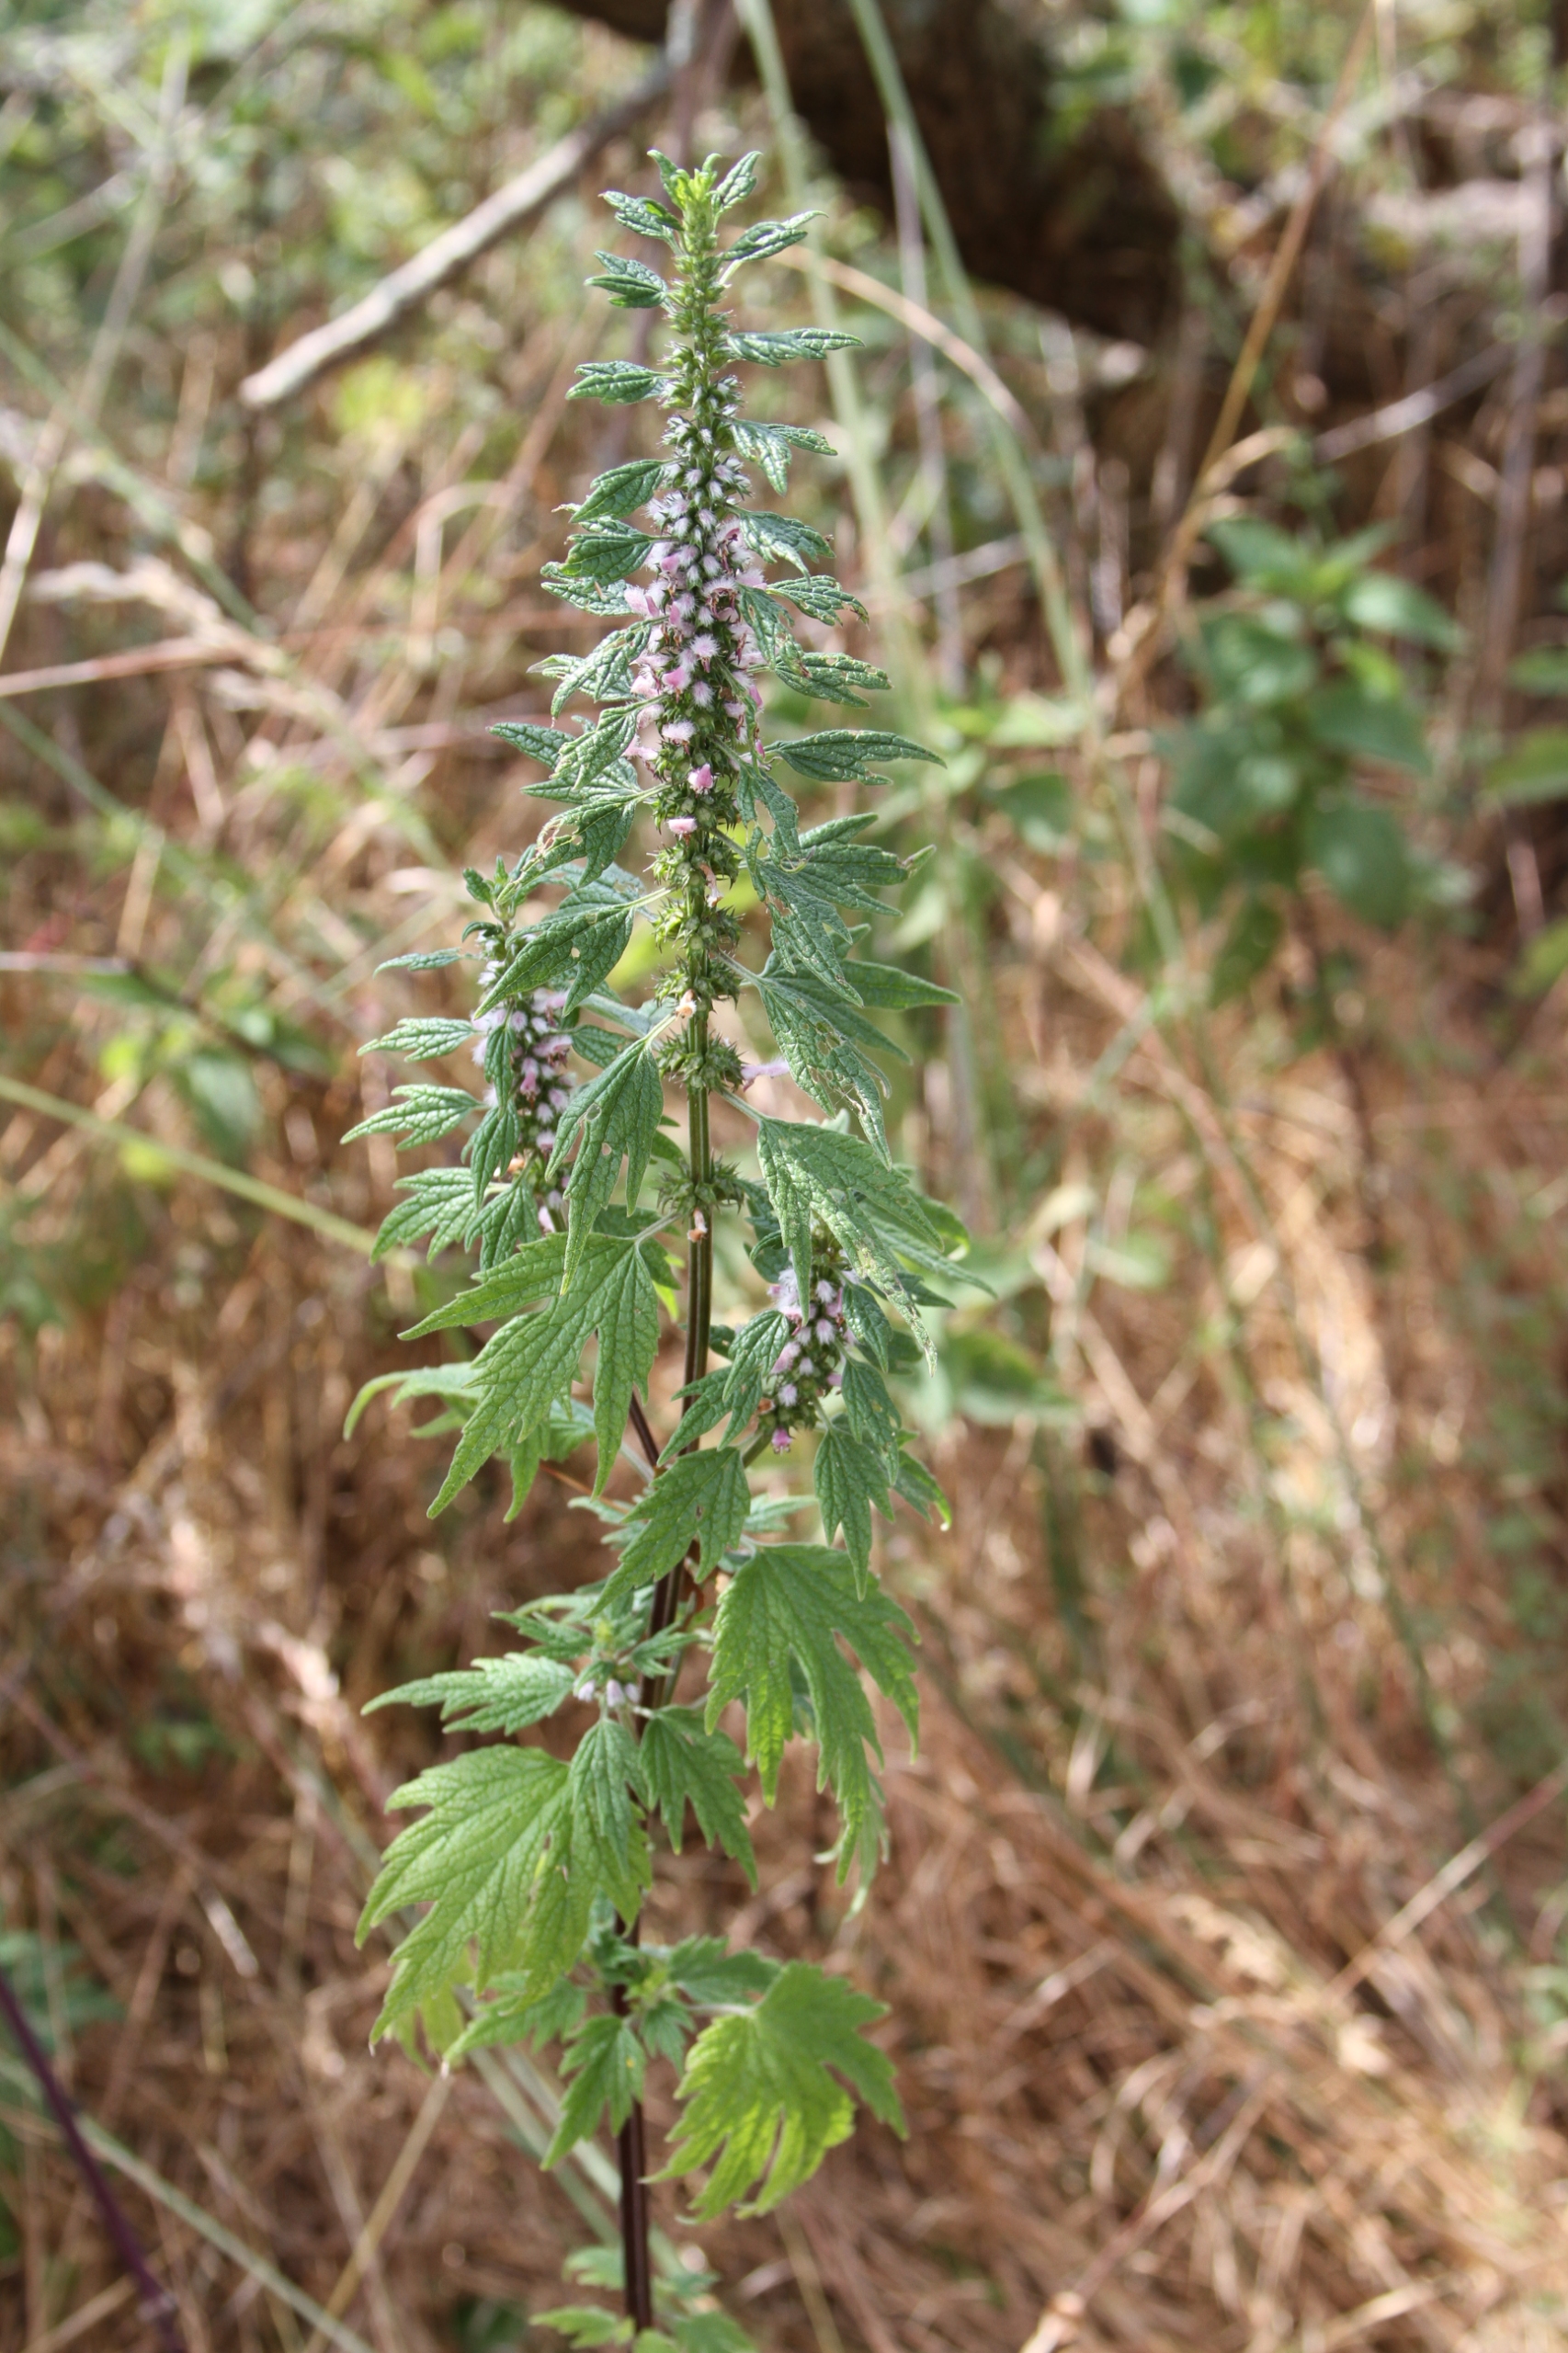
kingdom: Plantae
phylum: Tracheophyta
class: Magnoliopsida
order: Lamiales
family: Lamiaceae
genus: Leonurus
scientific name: Leonurus cardiaca
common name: Hjertespand
